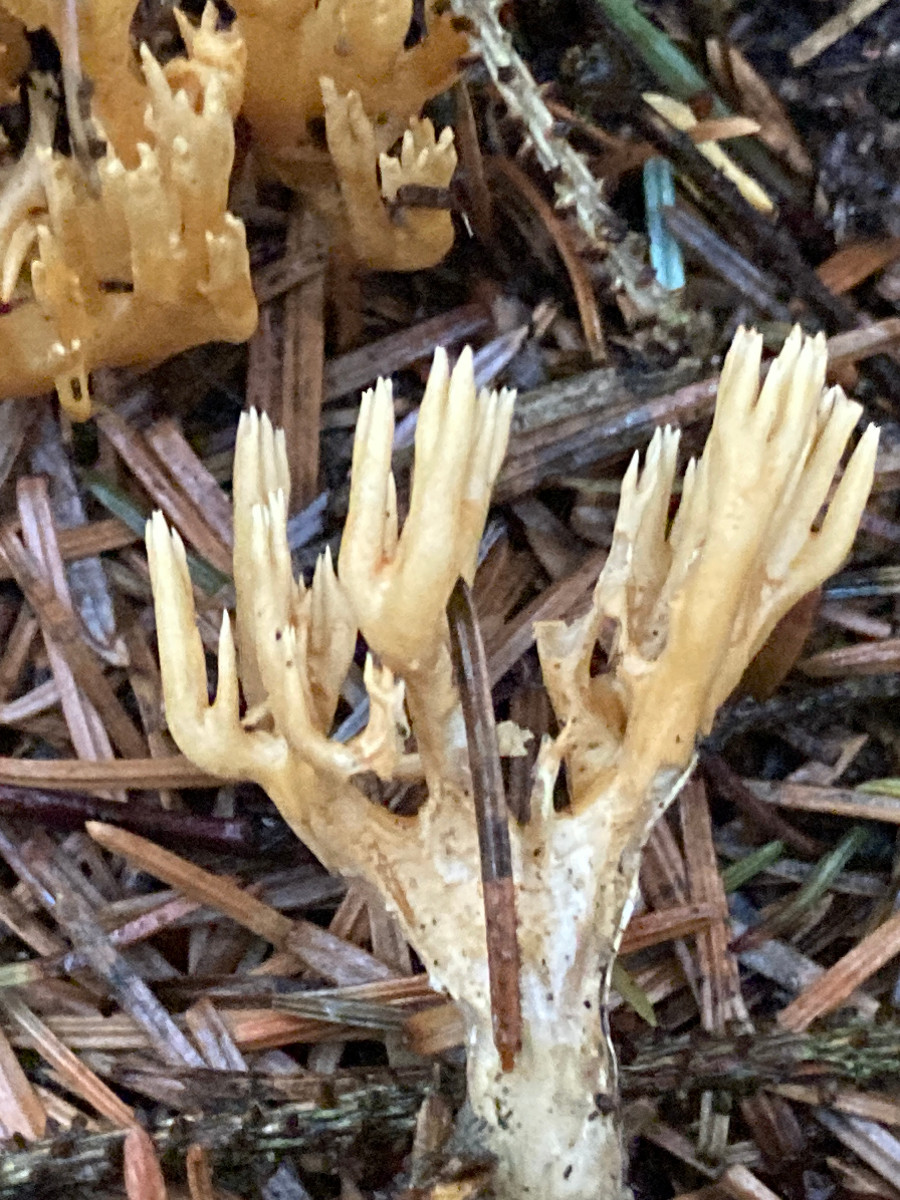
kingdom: Fungi
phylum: Basidiomycota
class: Agaricomycetes
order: Gomphales
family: Gomphaceae
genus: Phaeoclavulina
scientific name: Phaeoclavulina
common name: koralsvamp
